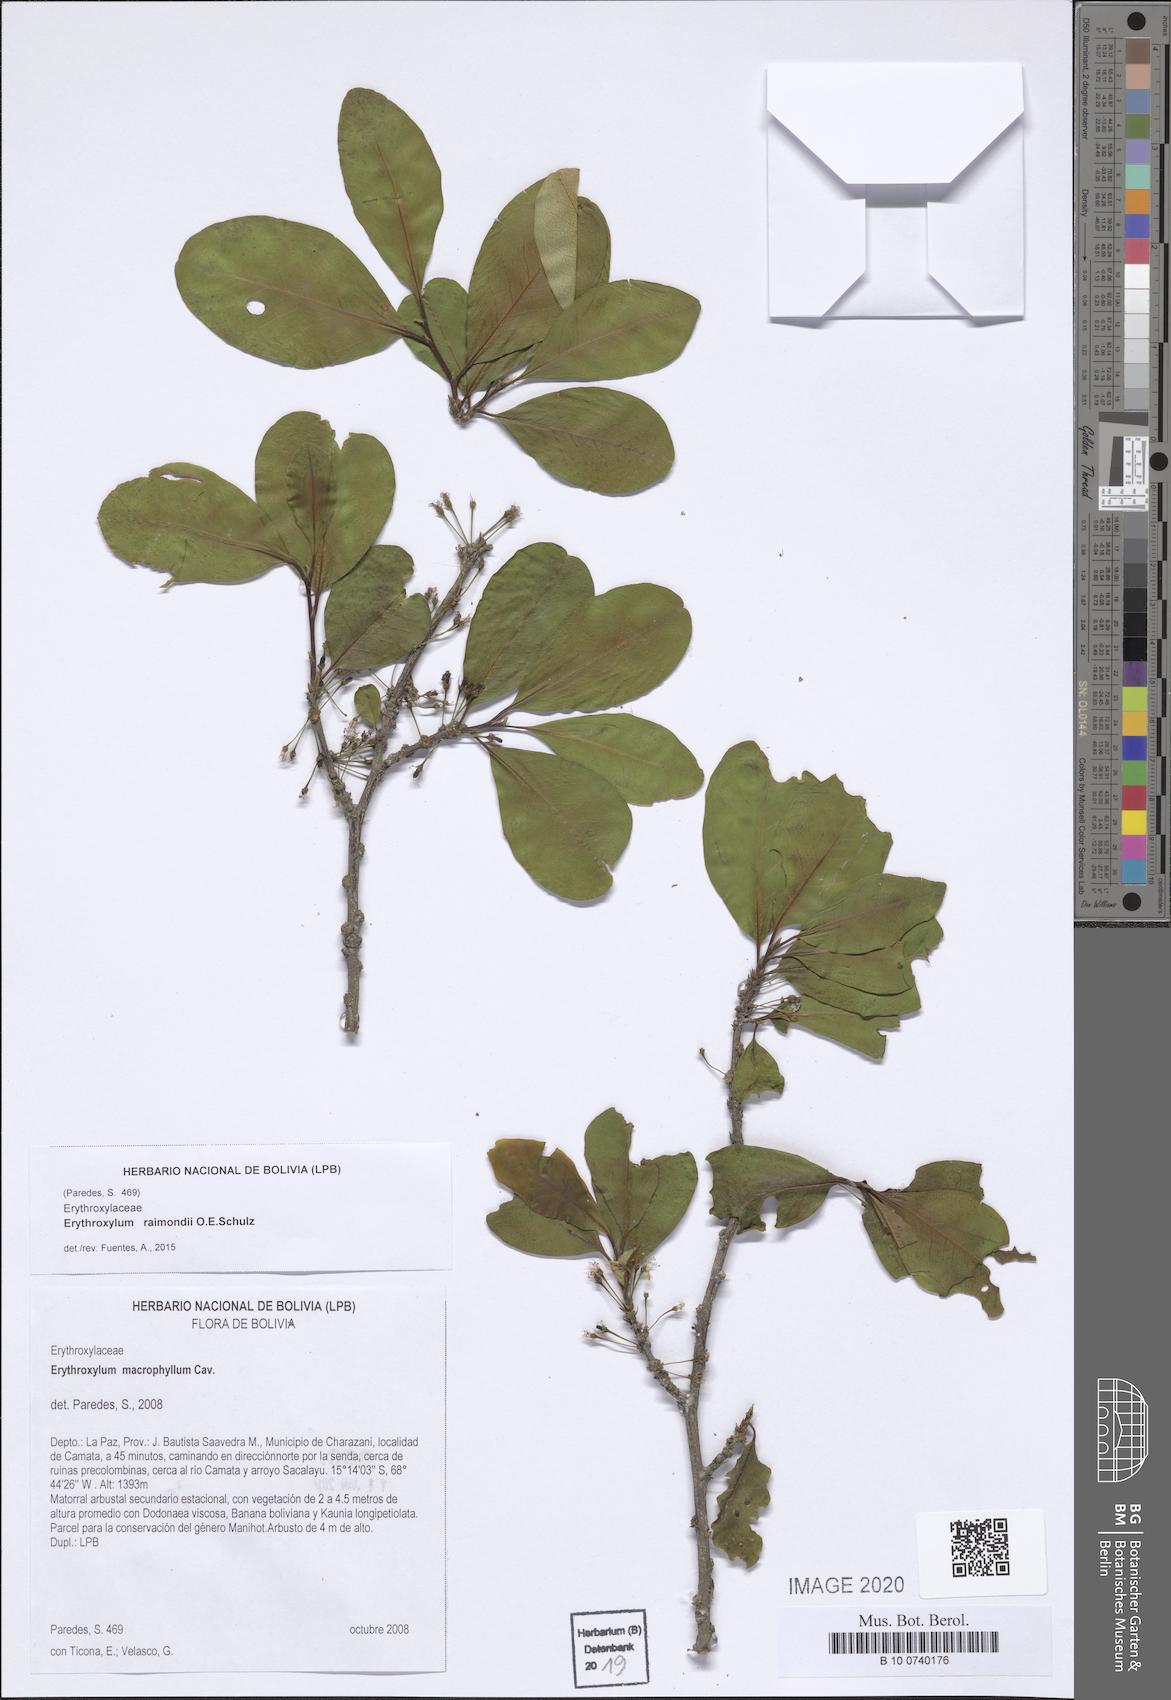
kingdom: Plantae
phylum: Tracheophyta
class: Magnoliopsida
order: Malpighiales
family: Erythroxylaceae
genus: Erythroxylum
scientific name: Erythroxylum raimondii
